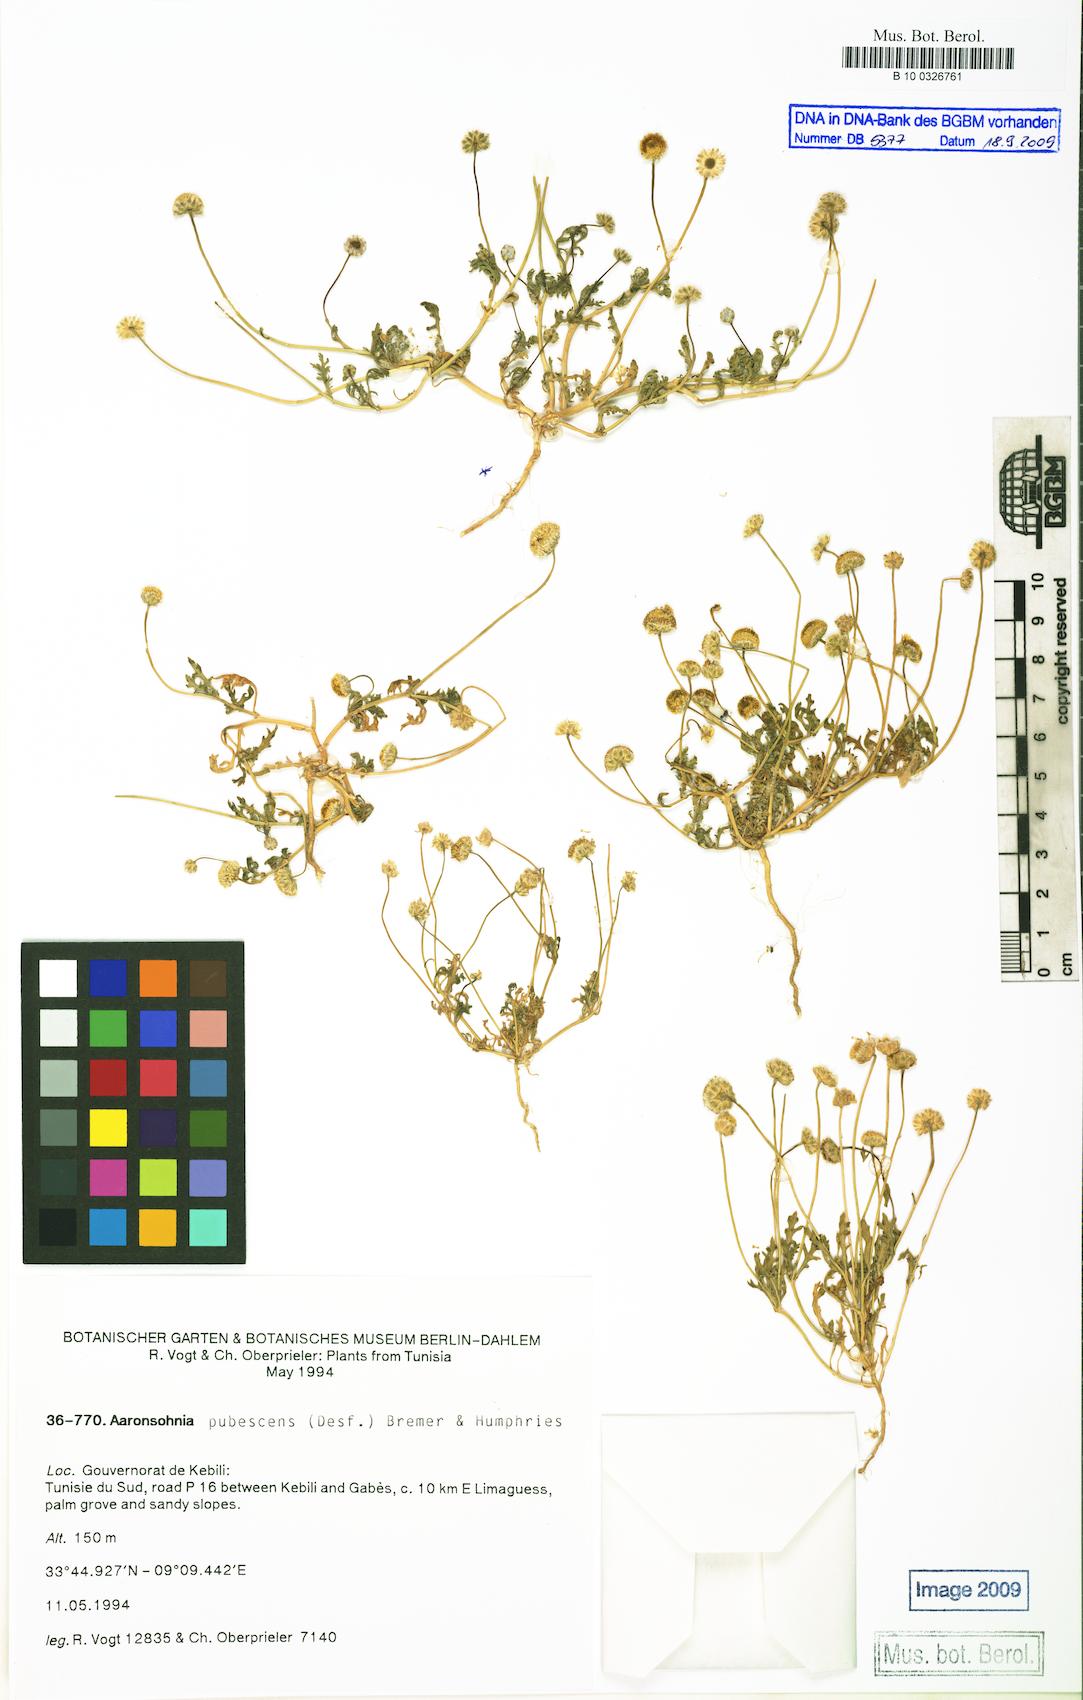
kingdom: Plantae
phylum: Tracheophyta
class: Magnoliopsida
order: Asterales
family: Asteraceae
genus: Otoglyphis
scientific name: Otoglyphis pubescens
